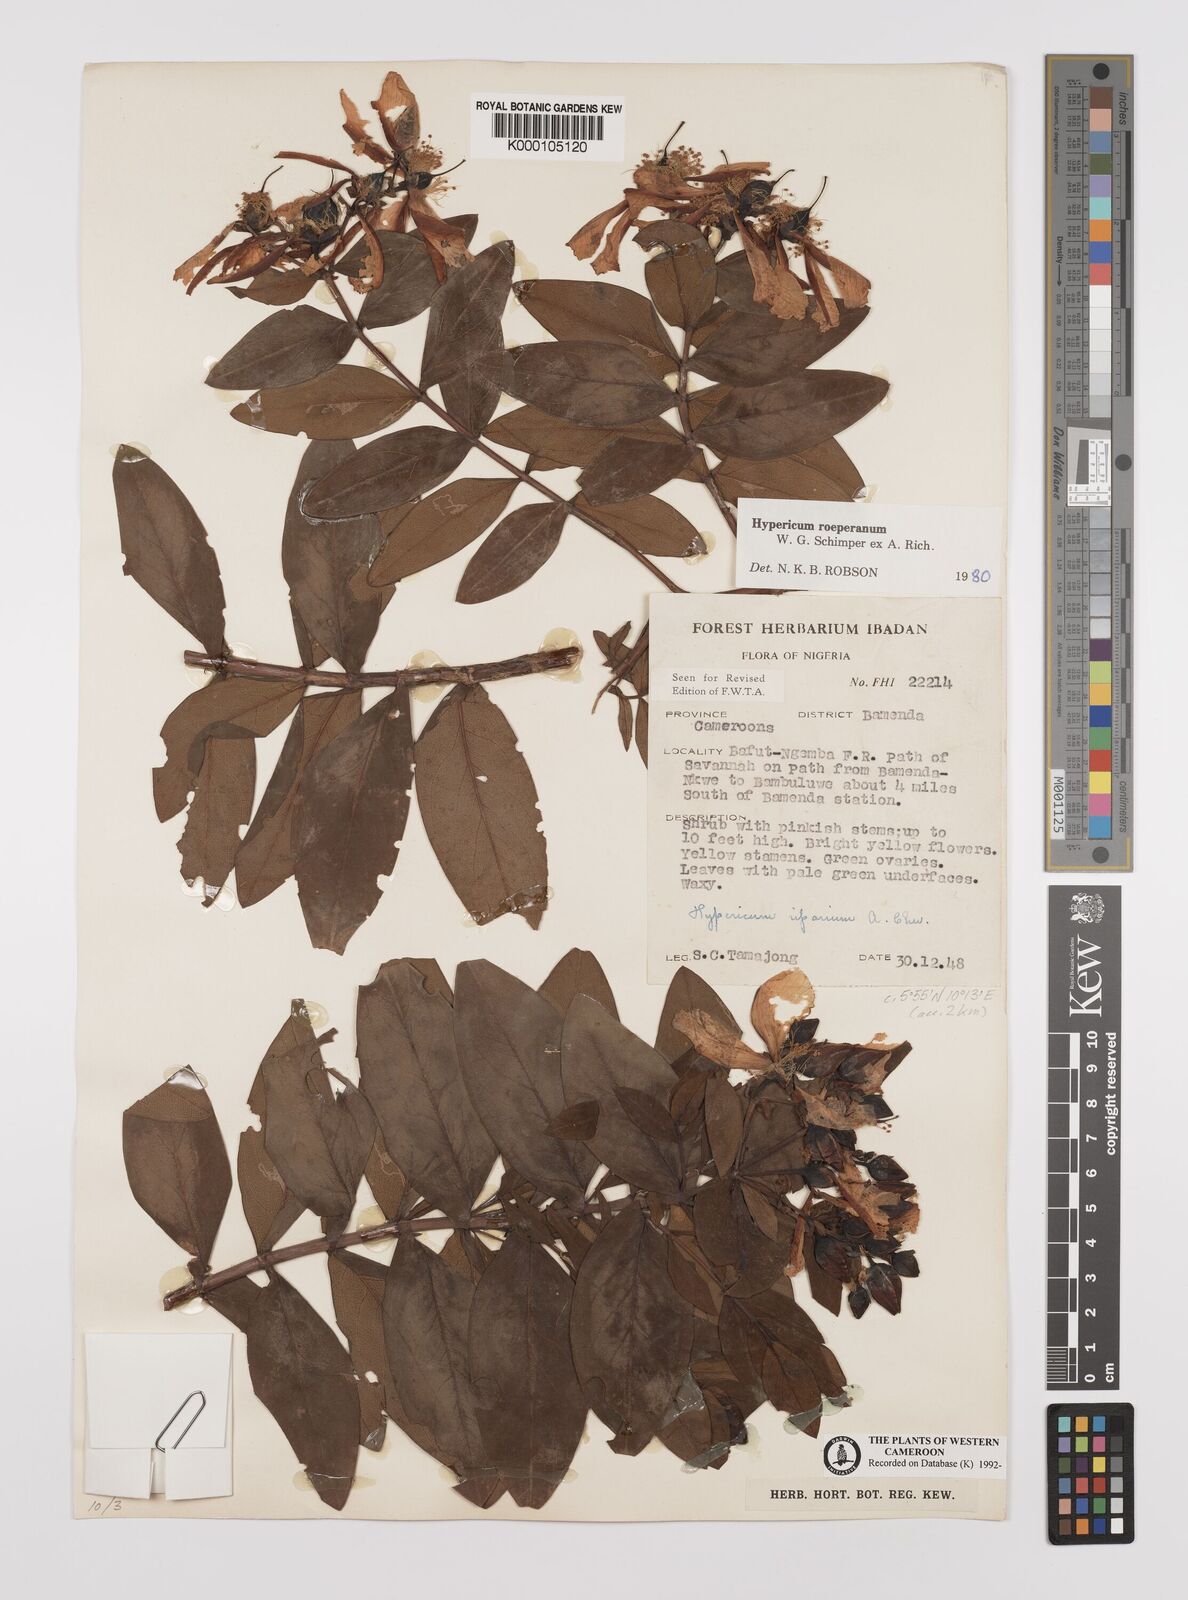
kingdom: Plantae
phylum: Tracheophyta
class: Magnoliopsida
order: Malpighiales
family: Hypericaceae
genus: Hypericum
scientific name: Hypericum
